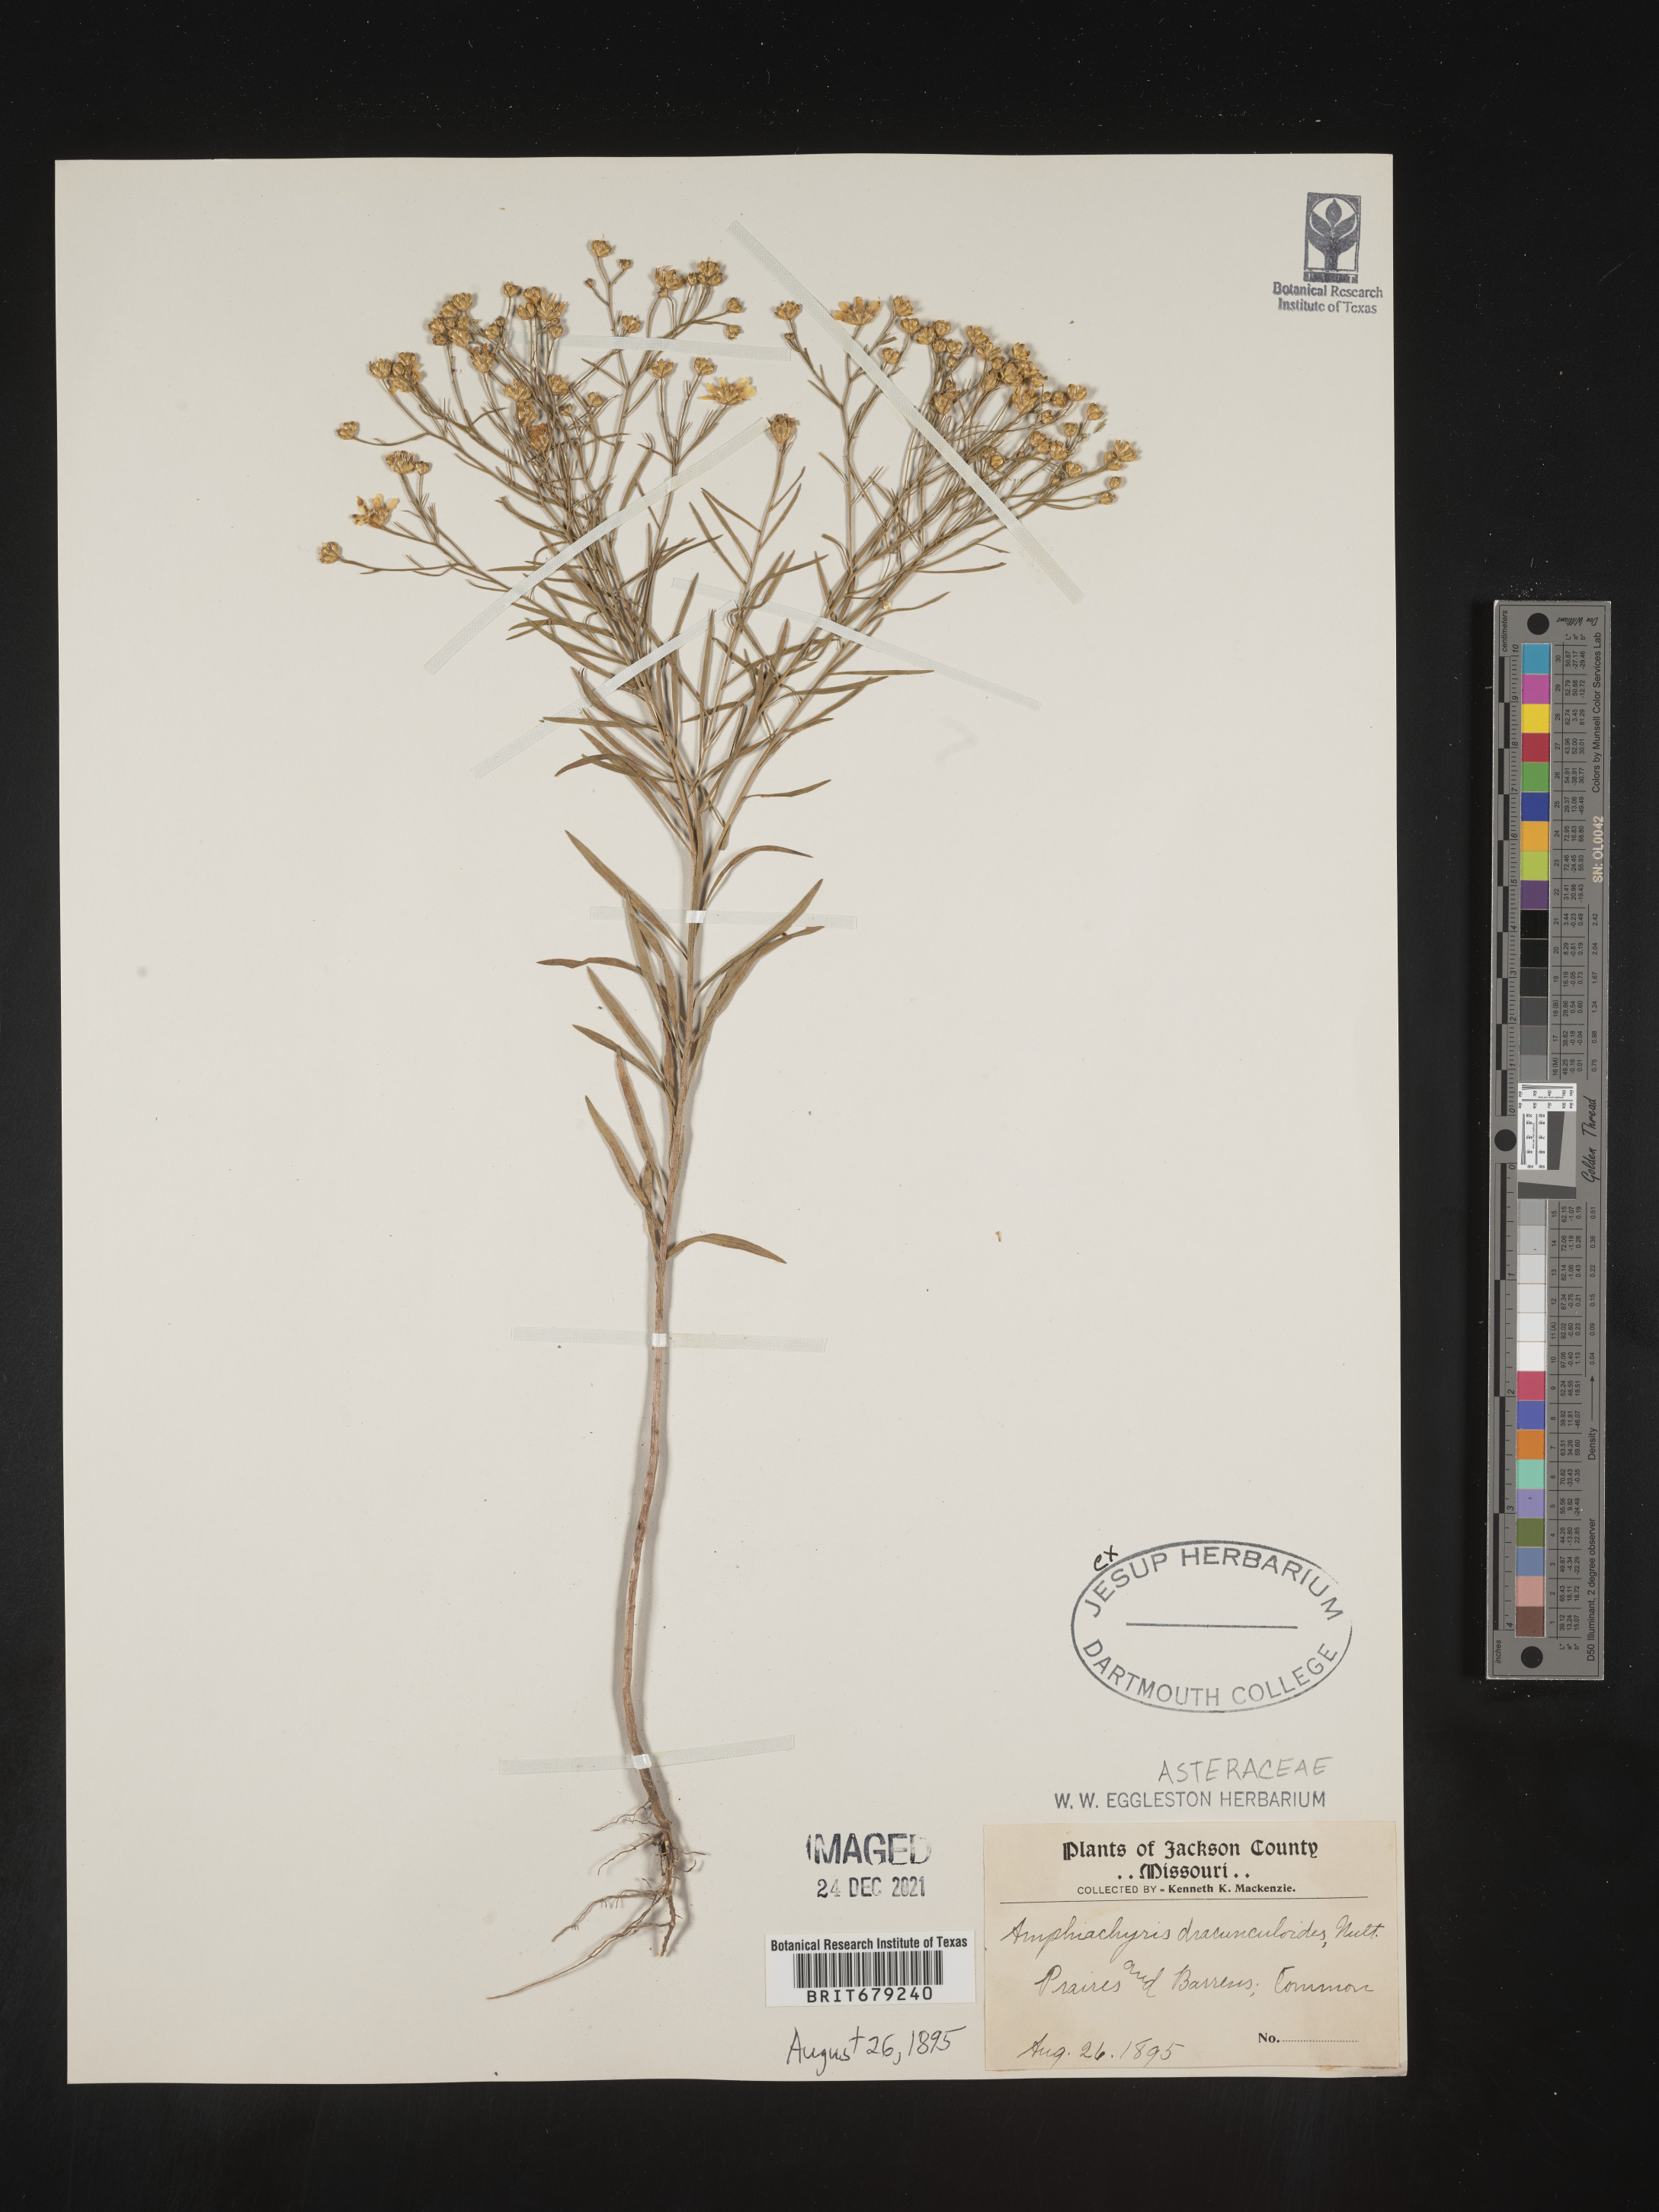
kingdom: Plantae
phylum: Tracheophyta
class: Magnoliopsida
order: Asterales
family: Asteraceae
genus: Amphiachyris
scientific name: Amphiachyris dracunculoides
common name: Broomweed
